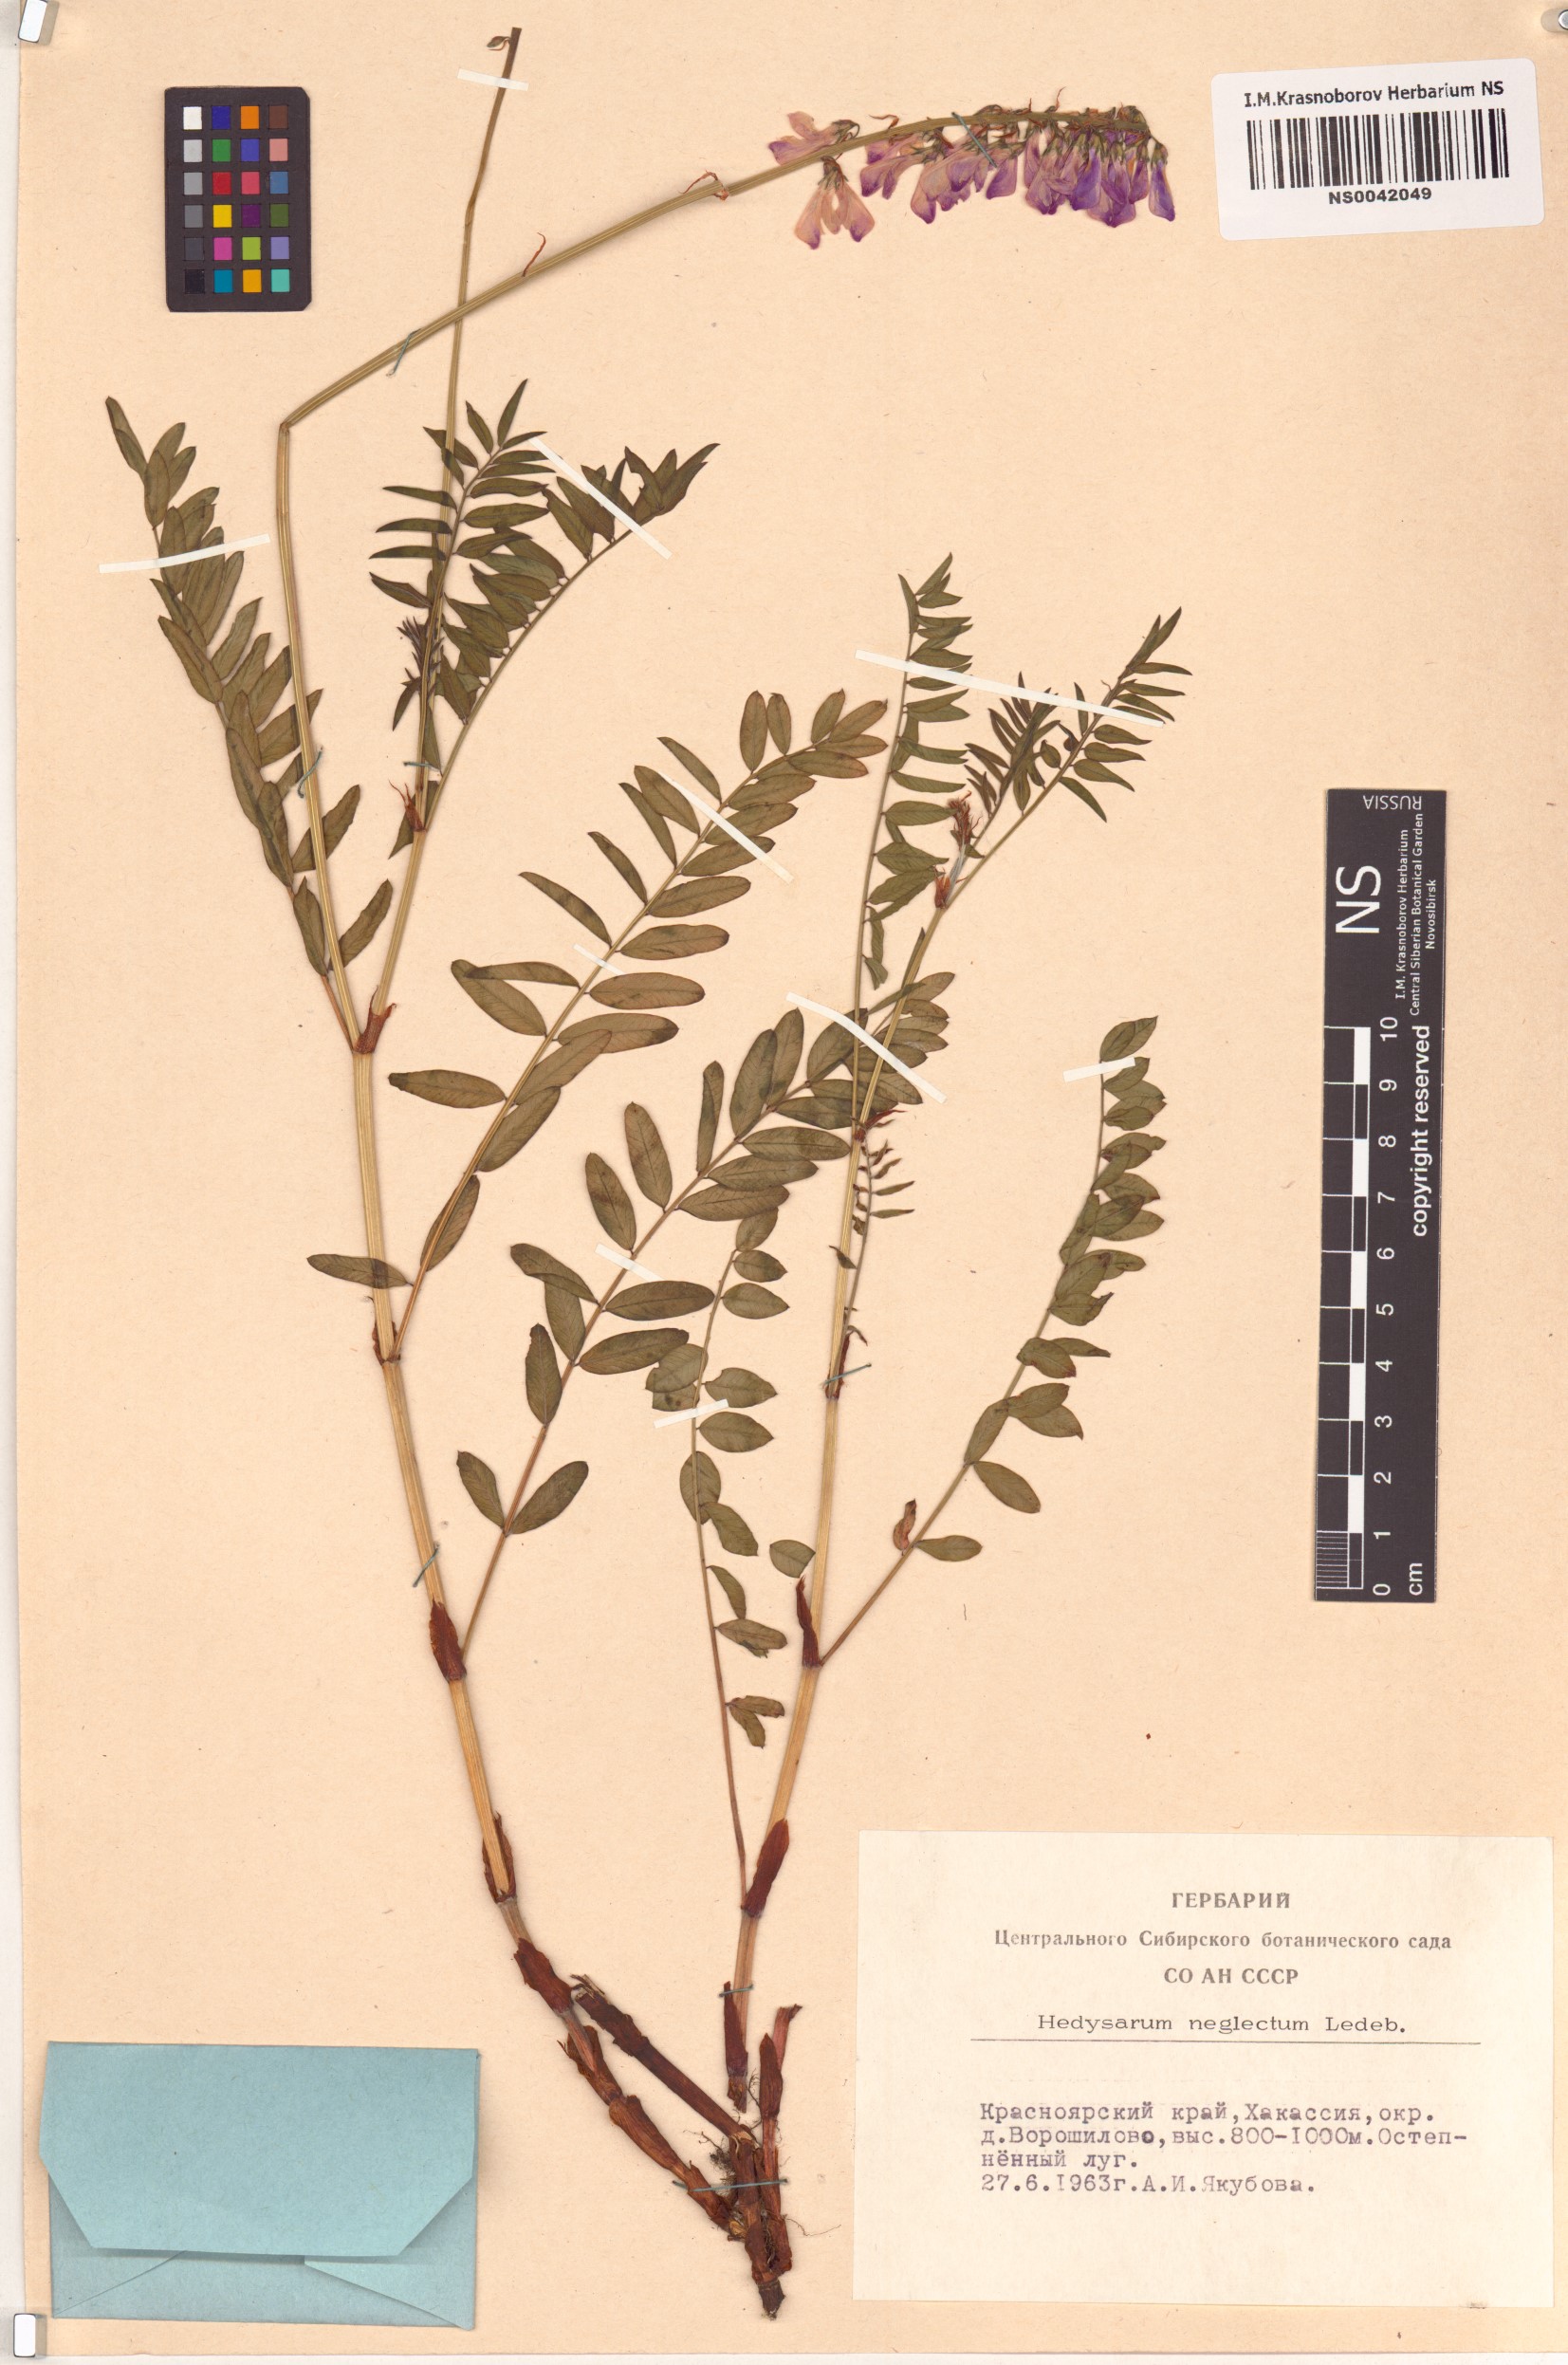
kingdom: Plantae
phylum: Tracheophyta
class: Magnoliopsida
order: Fabales
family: Fabaceae
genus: Hedysarum
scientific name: Hedysarum neglectum
